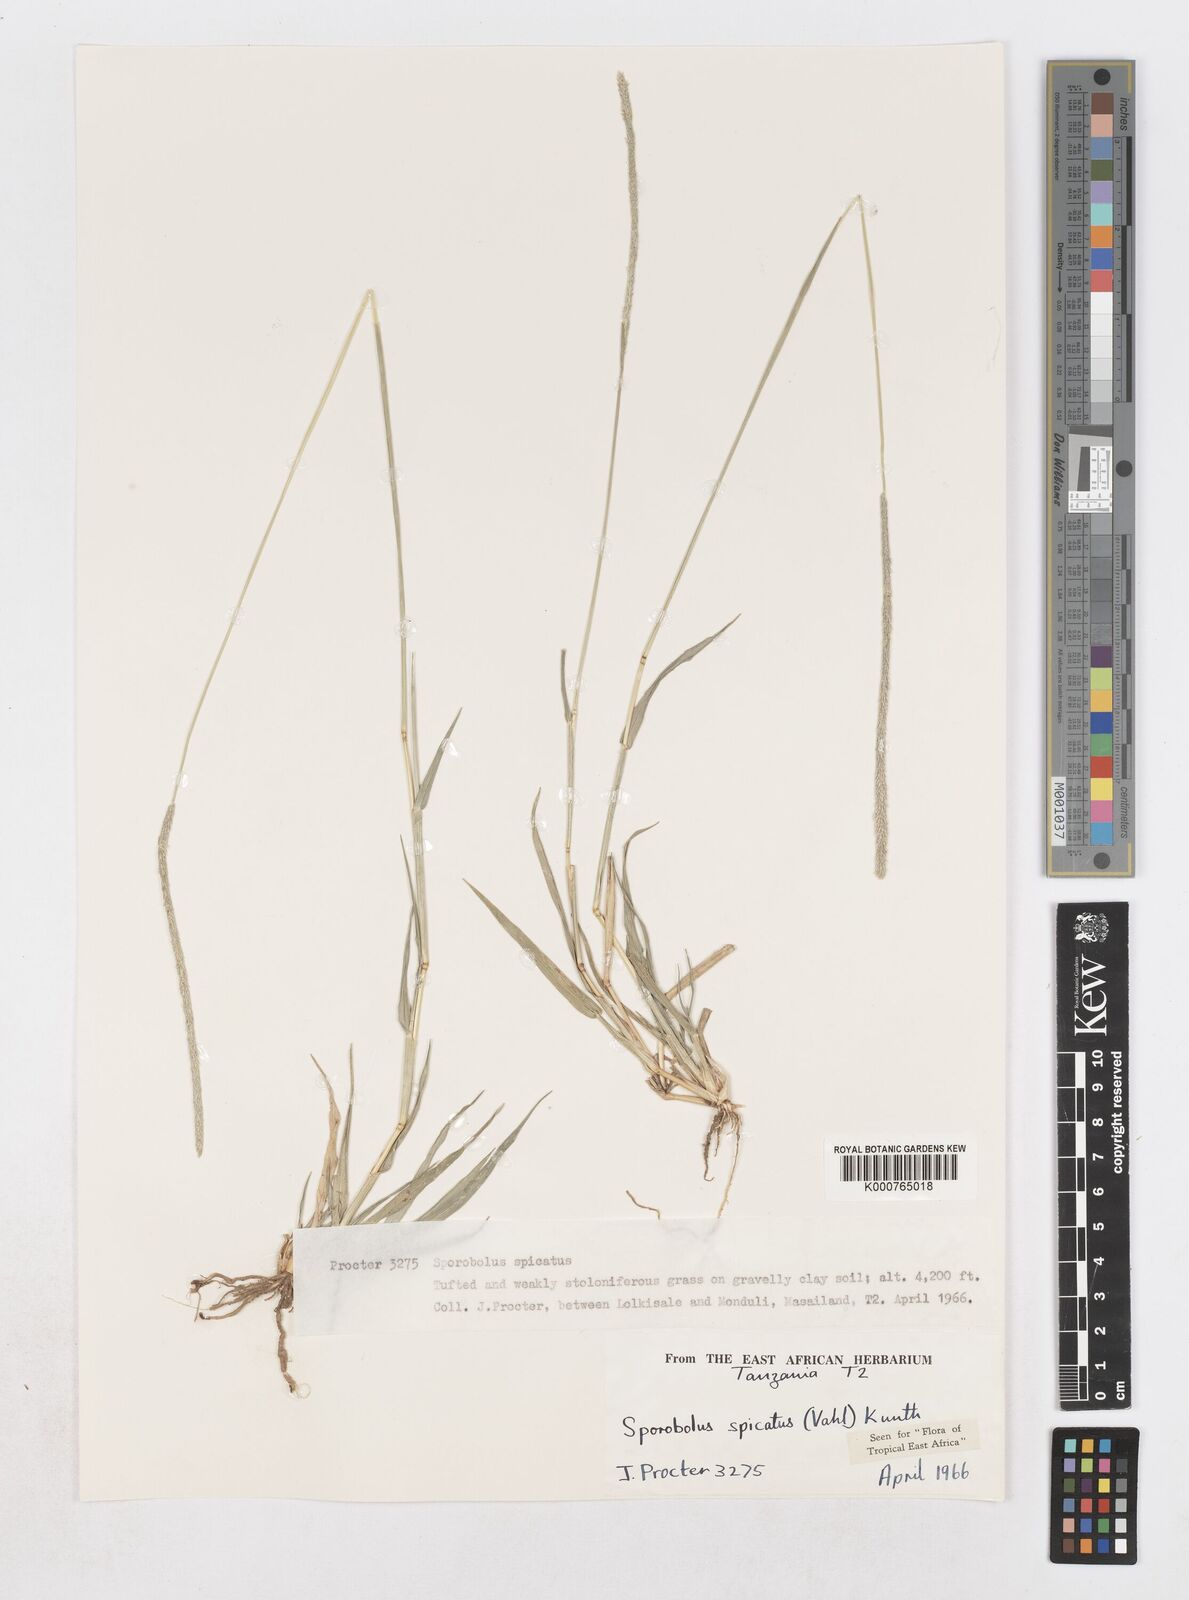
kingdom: Plantae
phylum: Tracheophyta
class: Liliopsida
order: Poales
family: Poaceae
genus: Sporobolus
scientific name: Sporobolus spicatus
